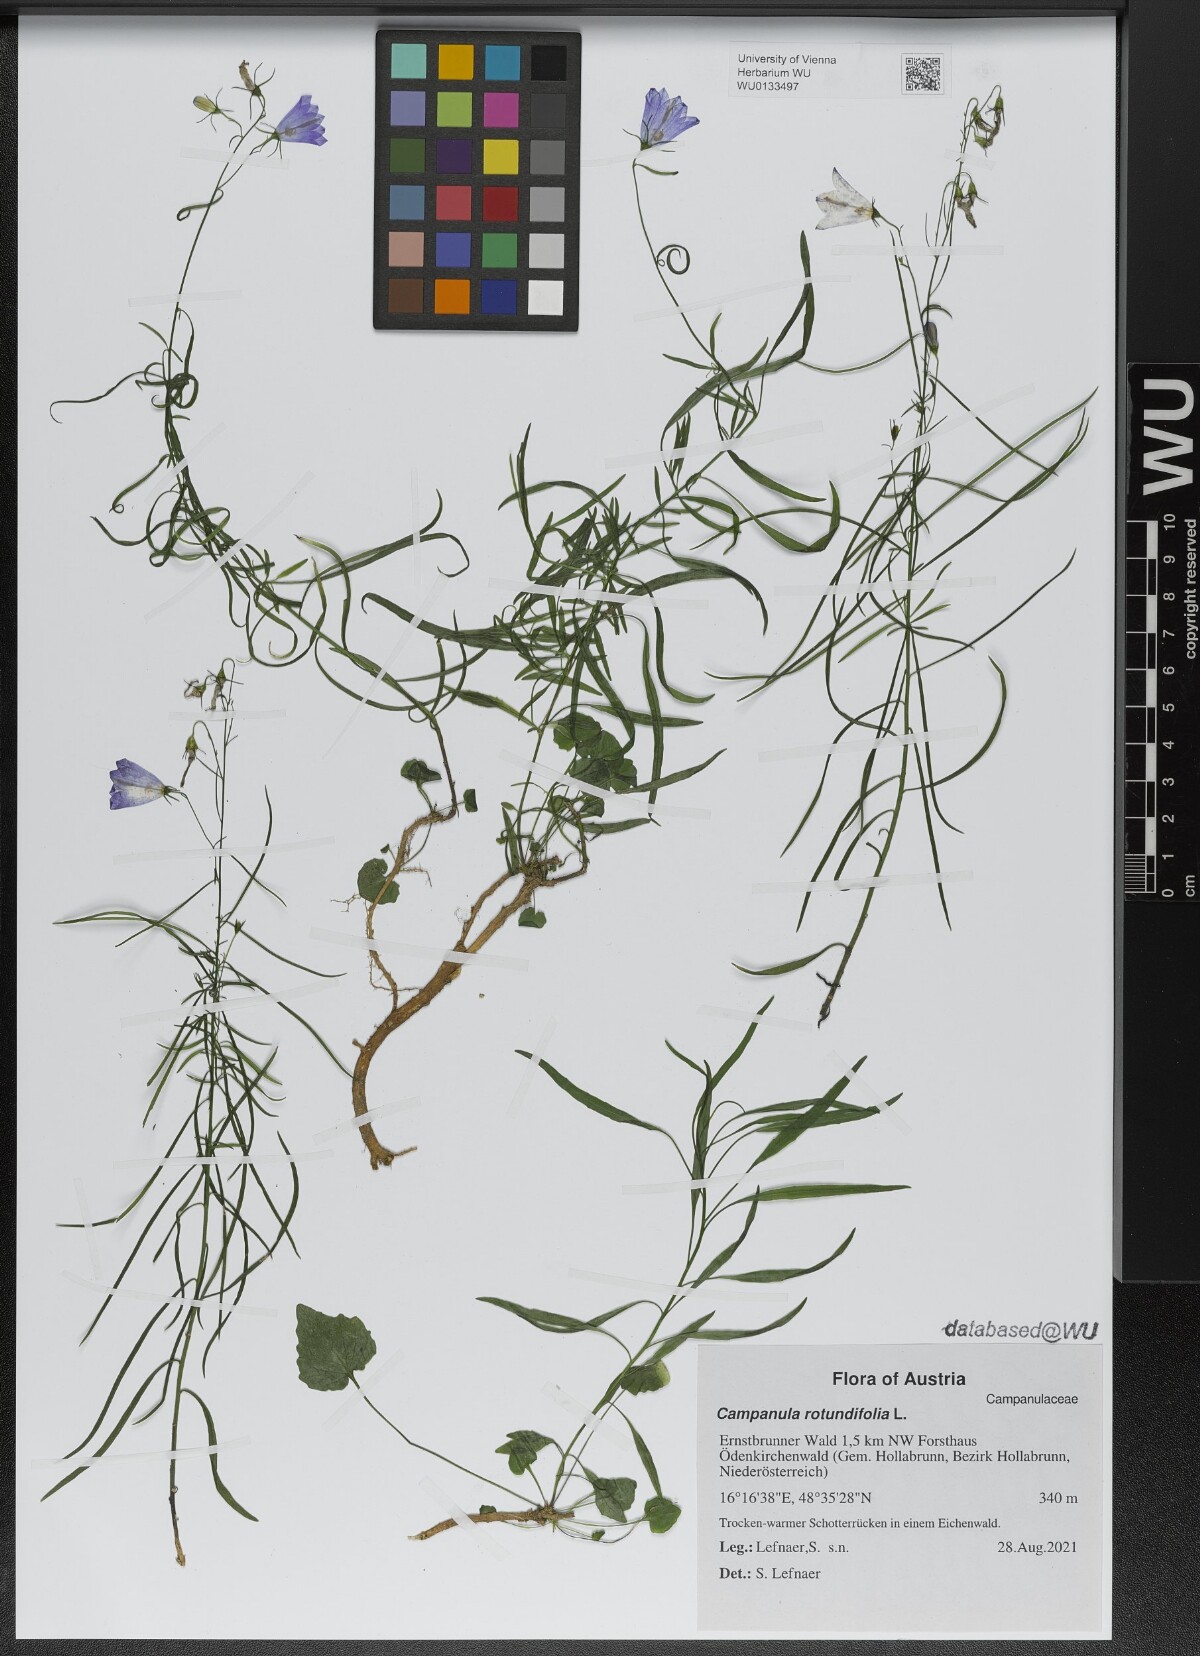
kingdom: Plantae
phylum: Tracheophyta
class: Magnoliopsida
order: Asterales
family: Campanulaceae
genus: Campanula
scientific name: Campanula rotundifolia
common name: Harebell
